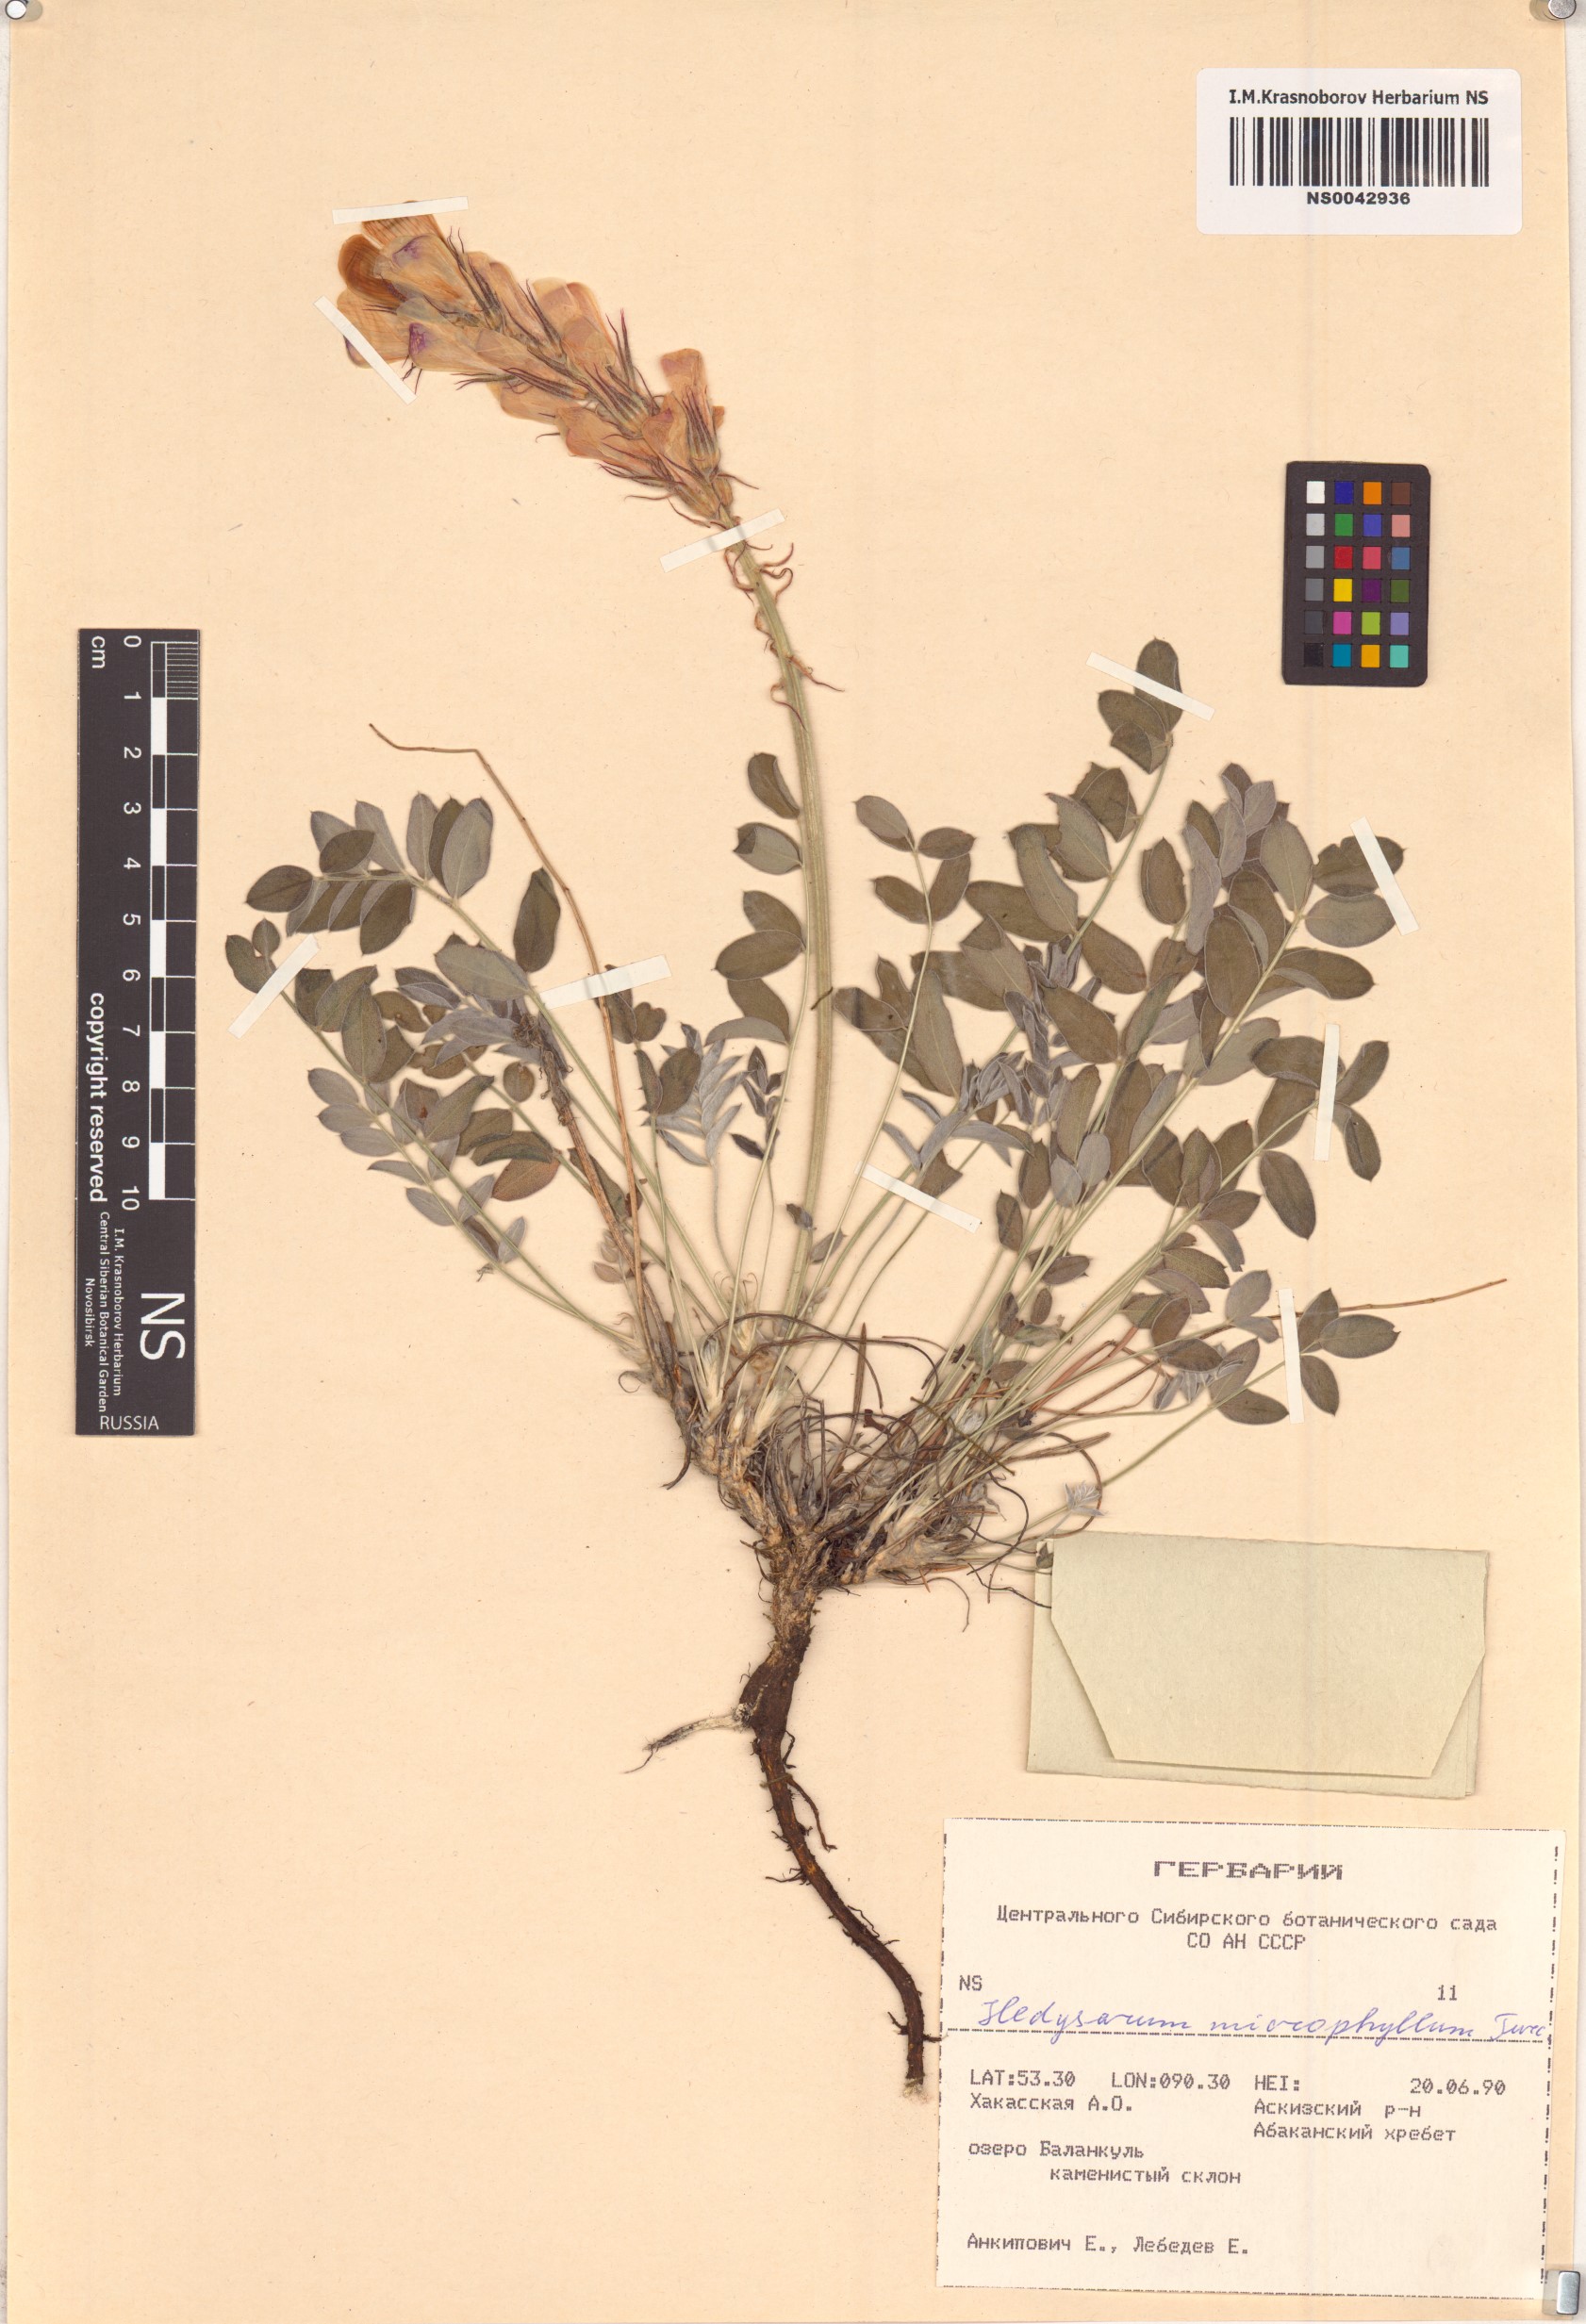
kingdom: Plantae
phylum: Tracheophyta
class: Magnoliopsida
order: Fabales
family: Fabaceae
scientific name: Fabaceae
